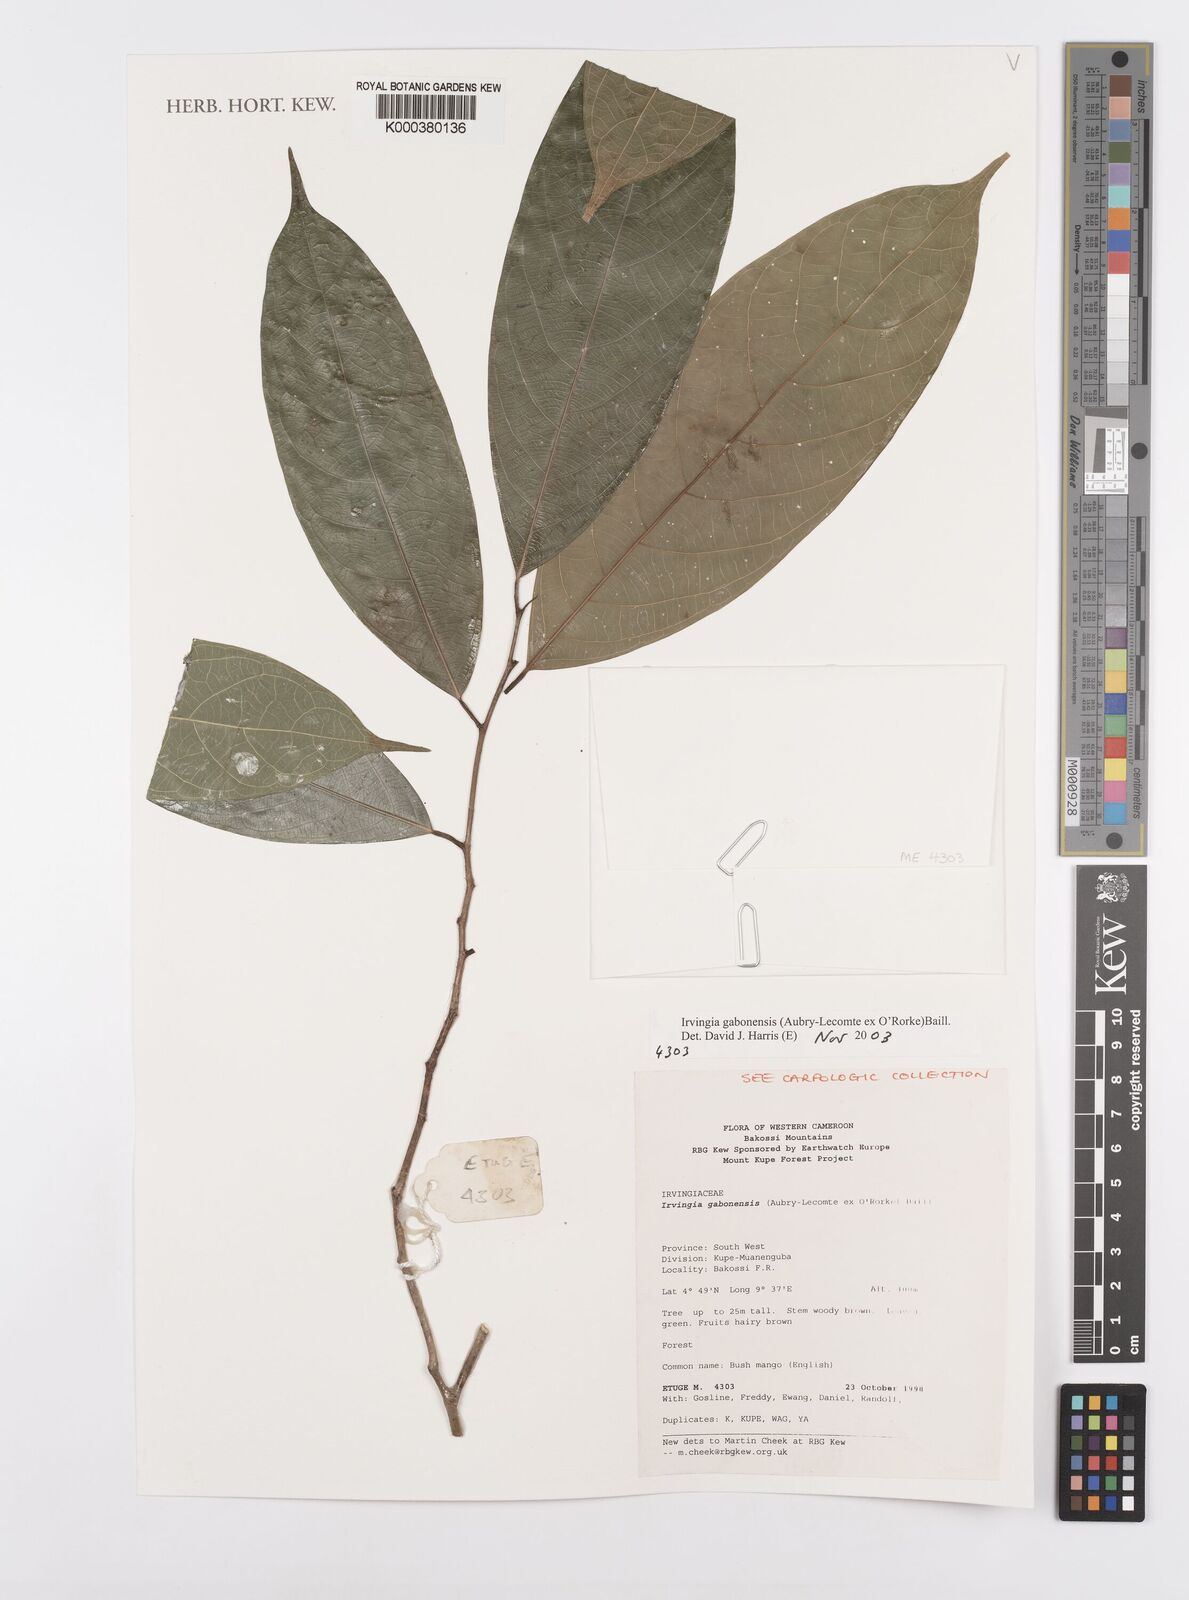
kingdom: Plantae
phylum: Tracheophyta
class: Magnoliopsida
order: Malpighiales
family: Irvingiaceae
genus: Irvingia
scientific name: Irvingia gabonensis
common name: Rainy season bush-mango
